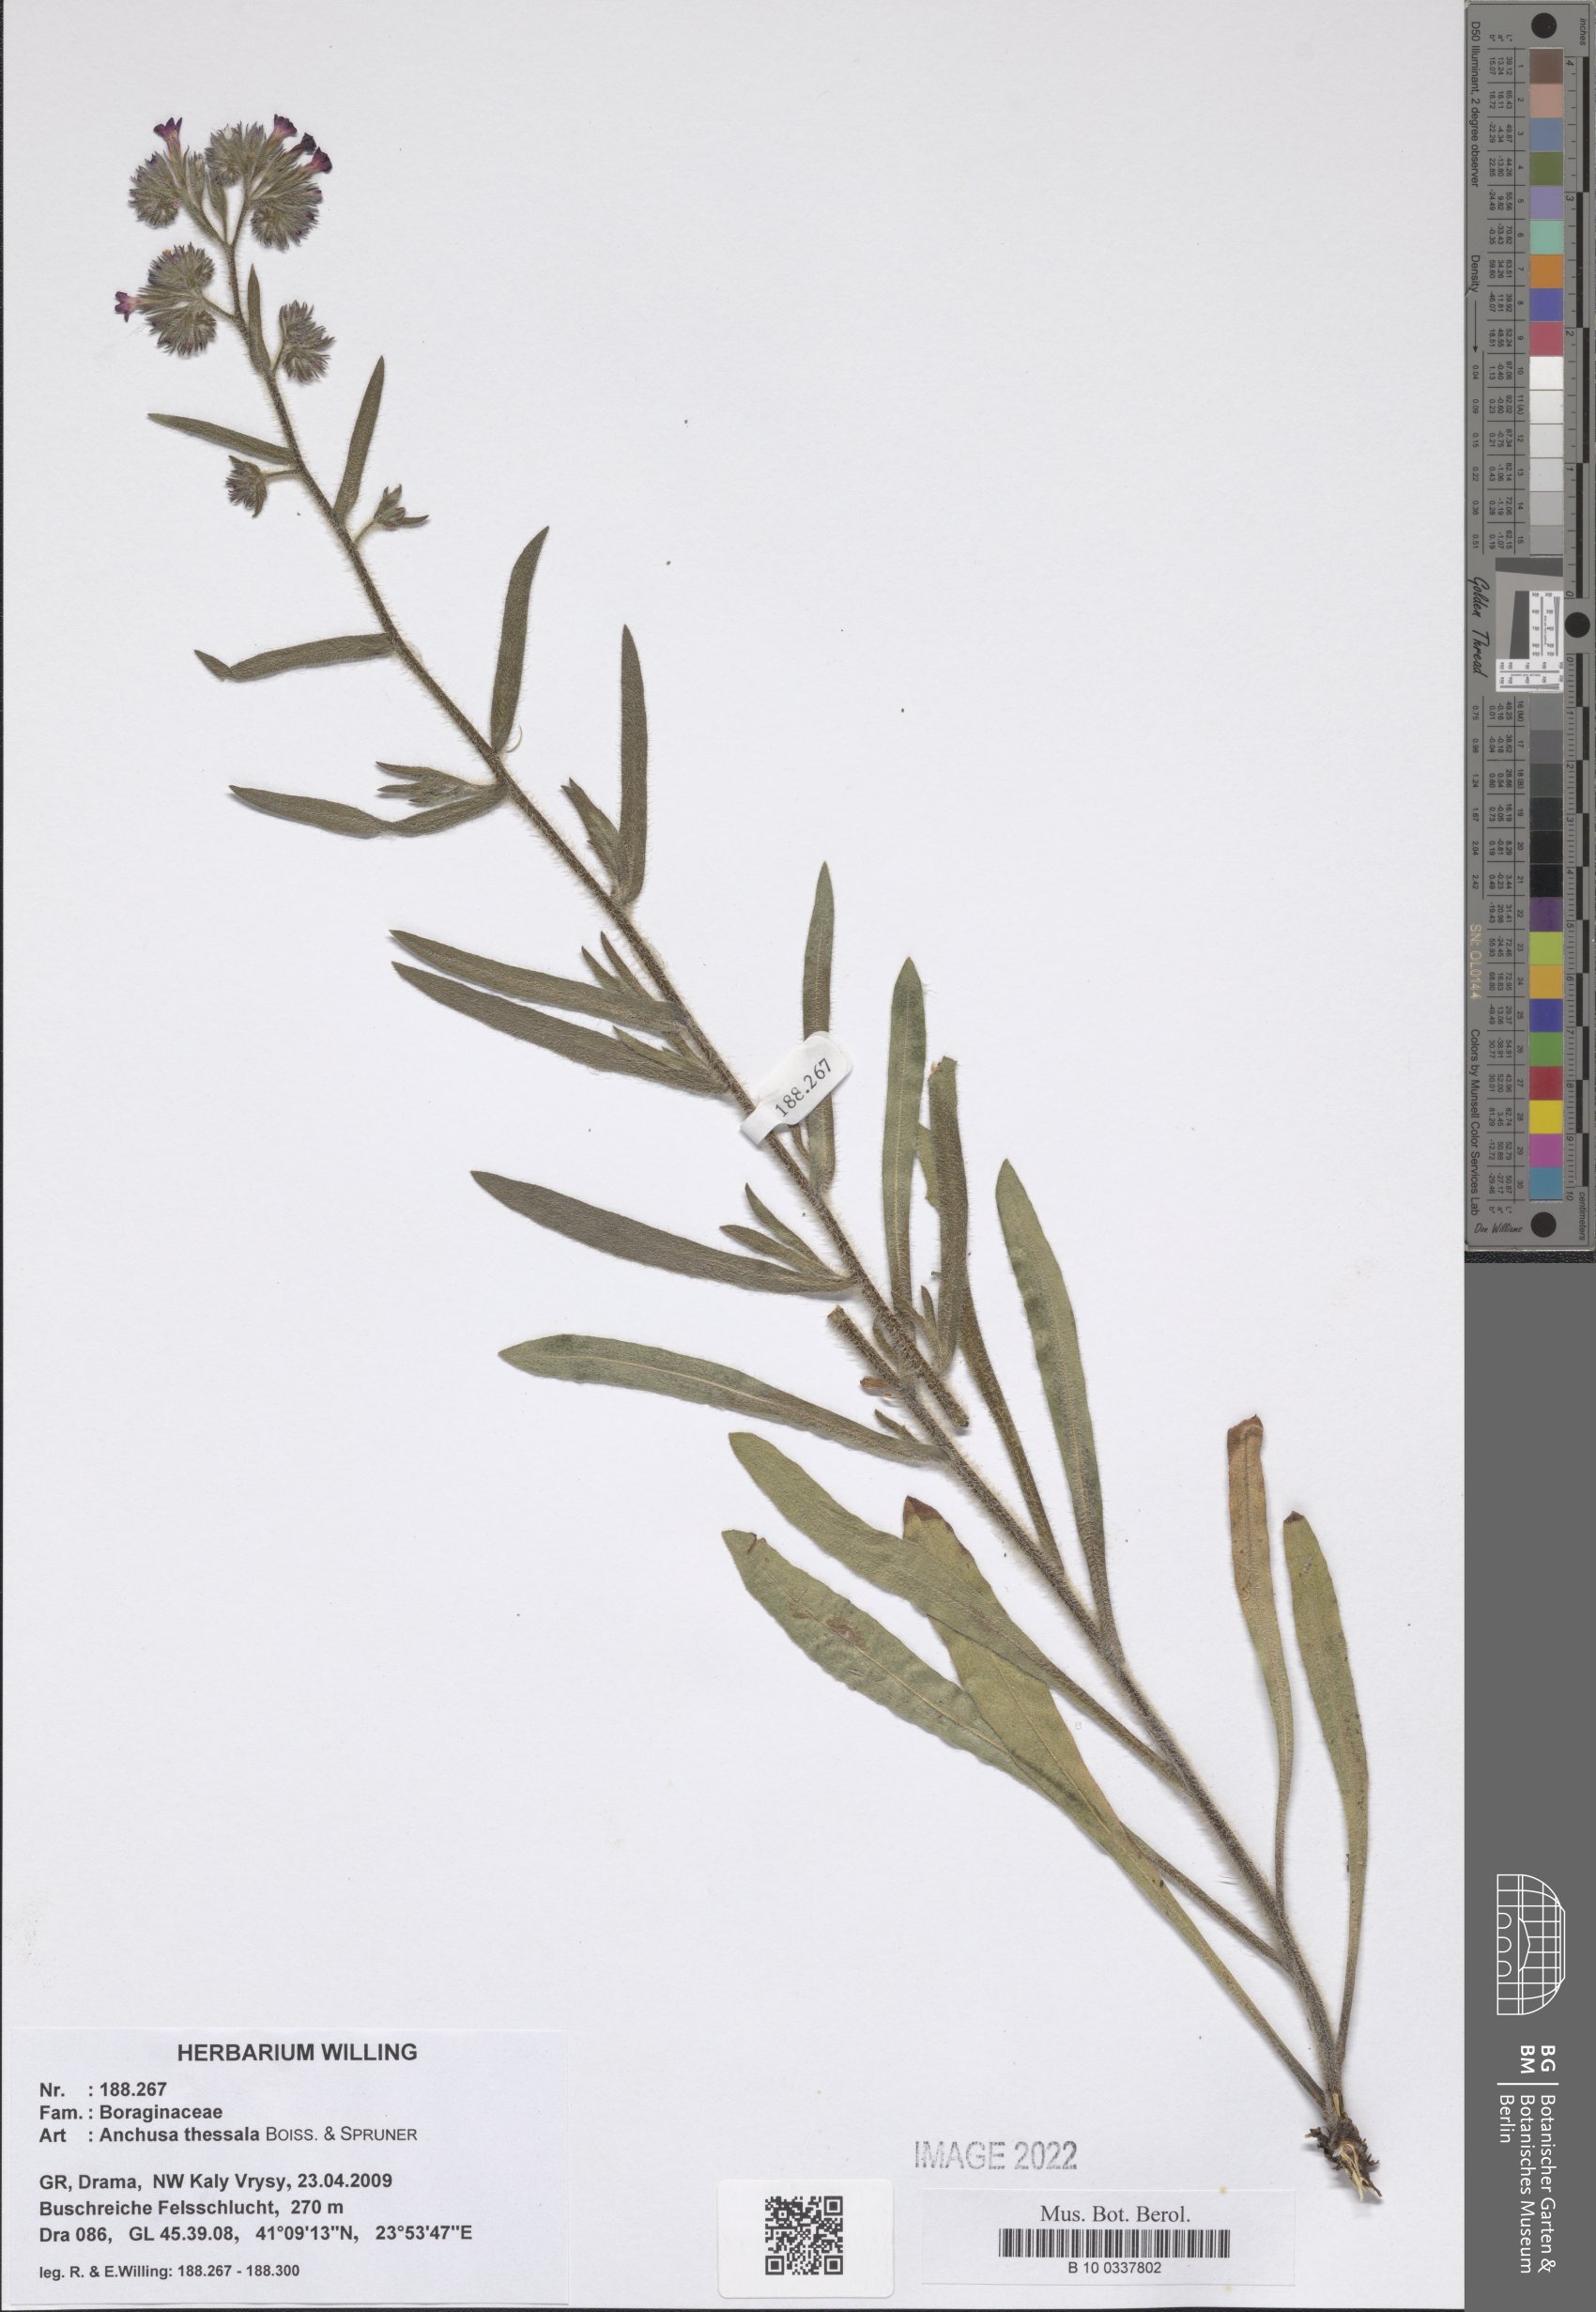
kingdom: Plantae
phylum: Tracheophyta
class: Magnoliopsida
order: Boraginales
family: Boraginaceae
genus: Anchusa
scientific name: Anchusa thessala
